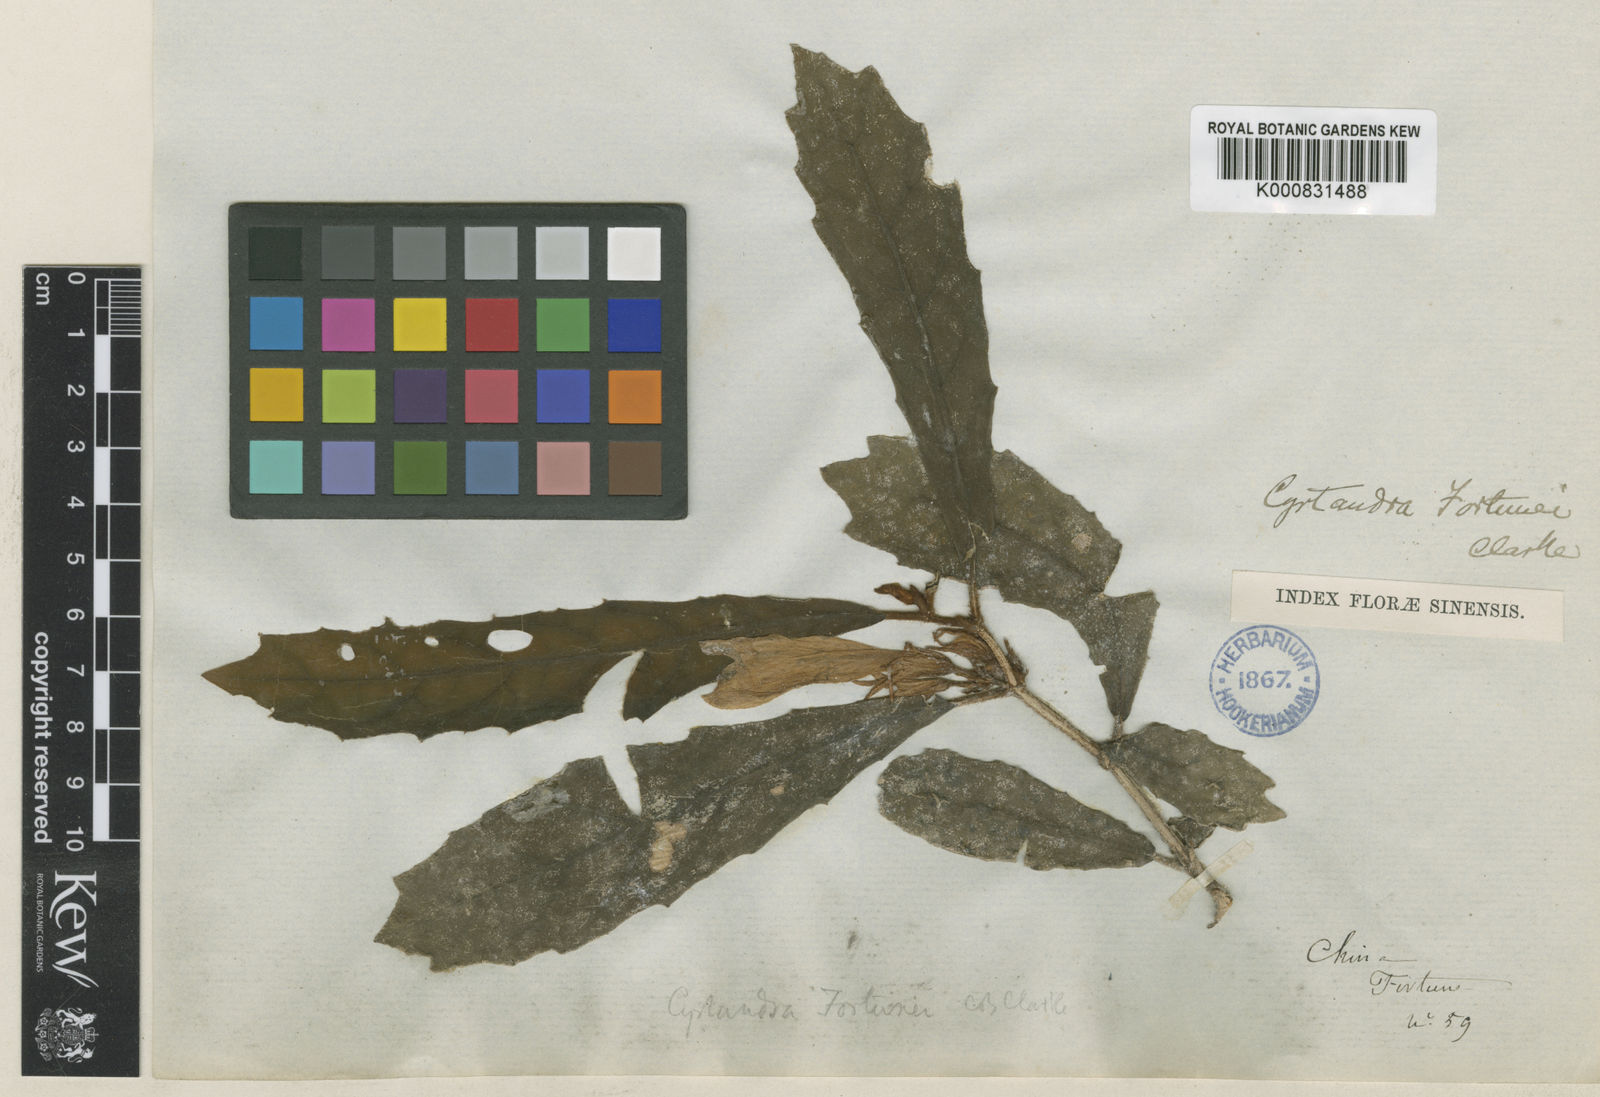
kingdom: Plantae
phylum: Tracheophyta
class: Magnoliopsida
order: Lamiales
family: Gesneriaceae
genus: Cyrtandra
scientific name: Cyrtandra fortunei
